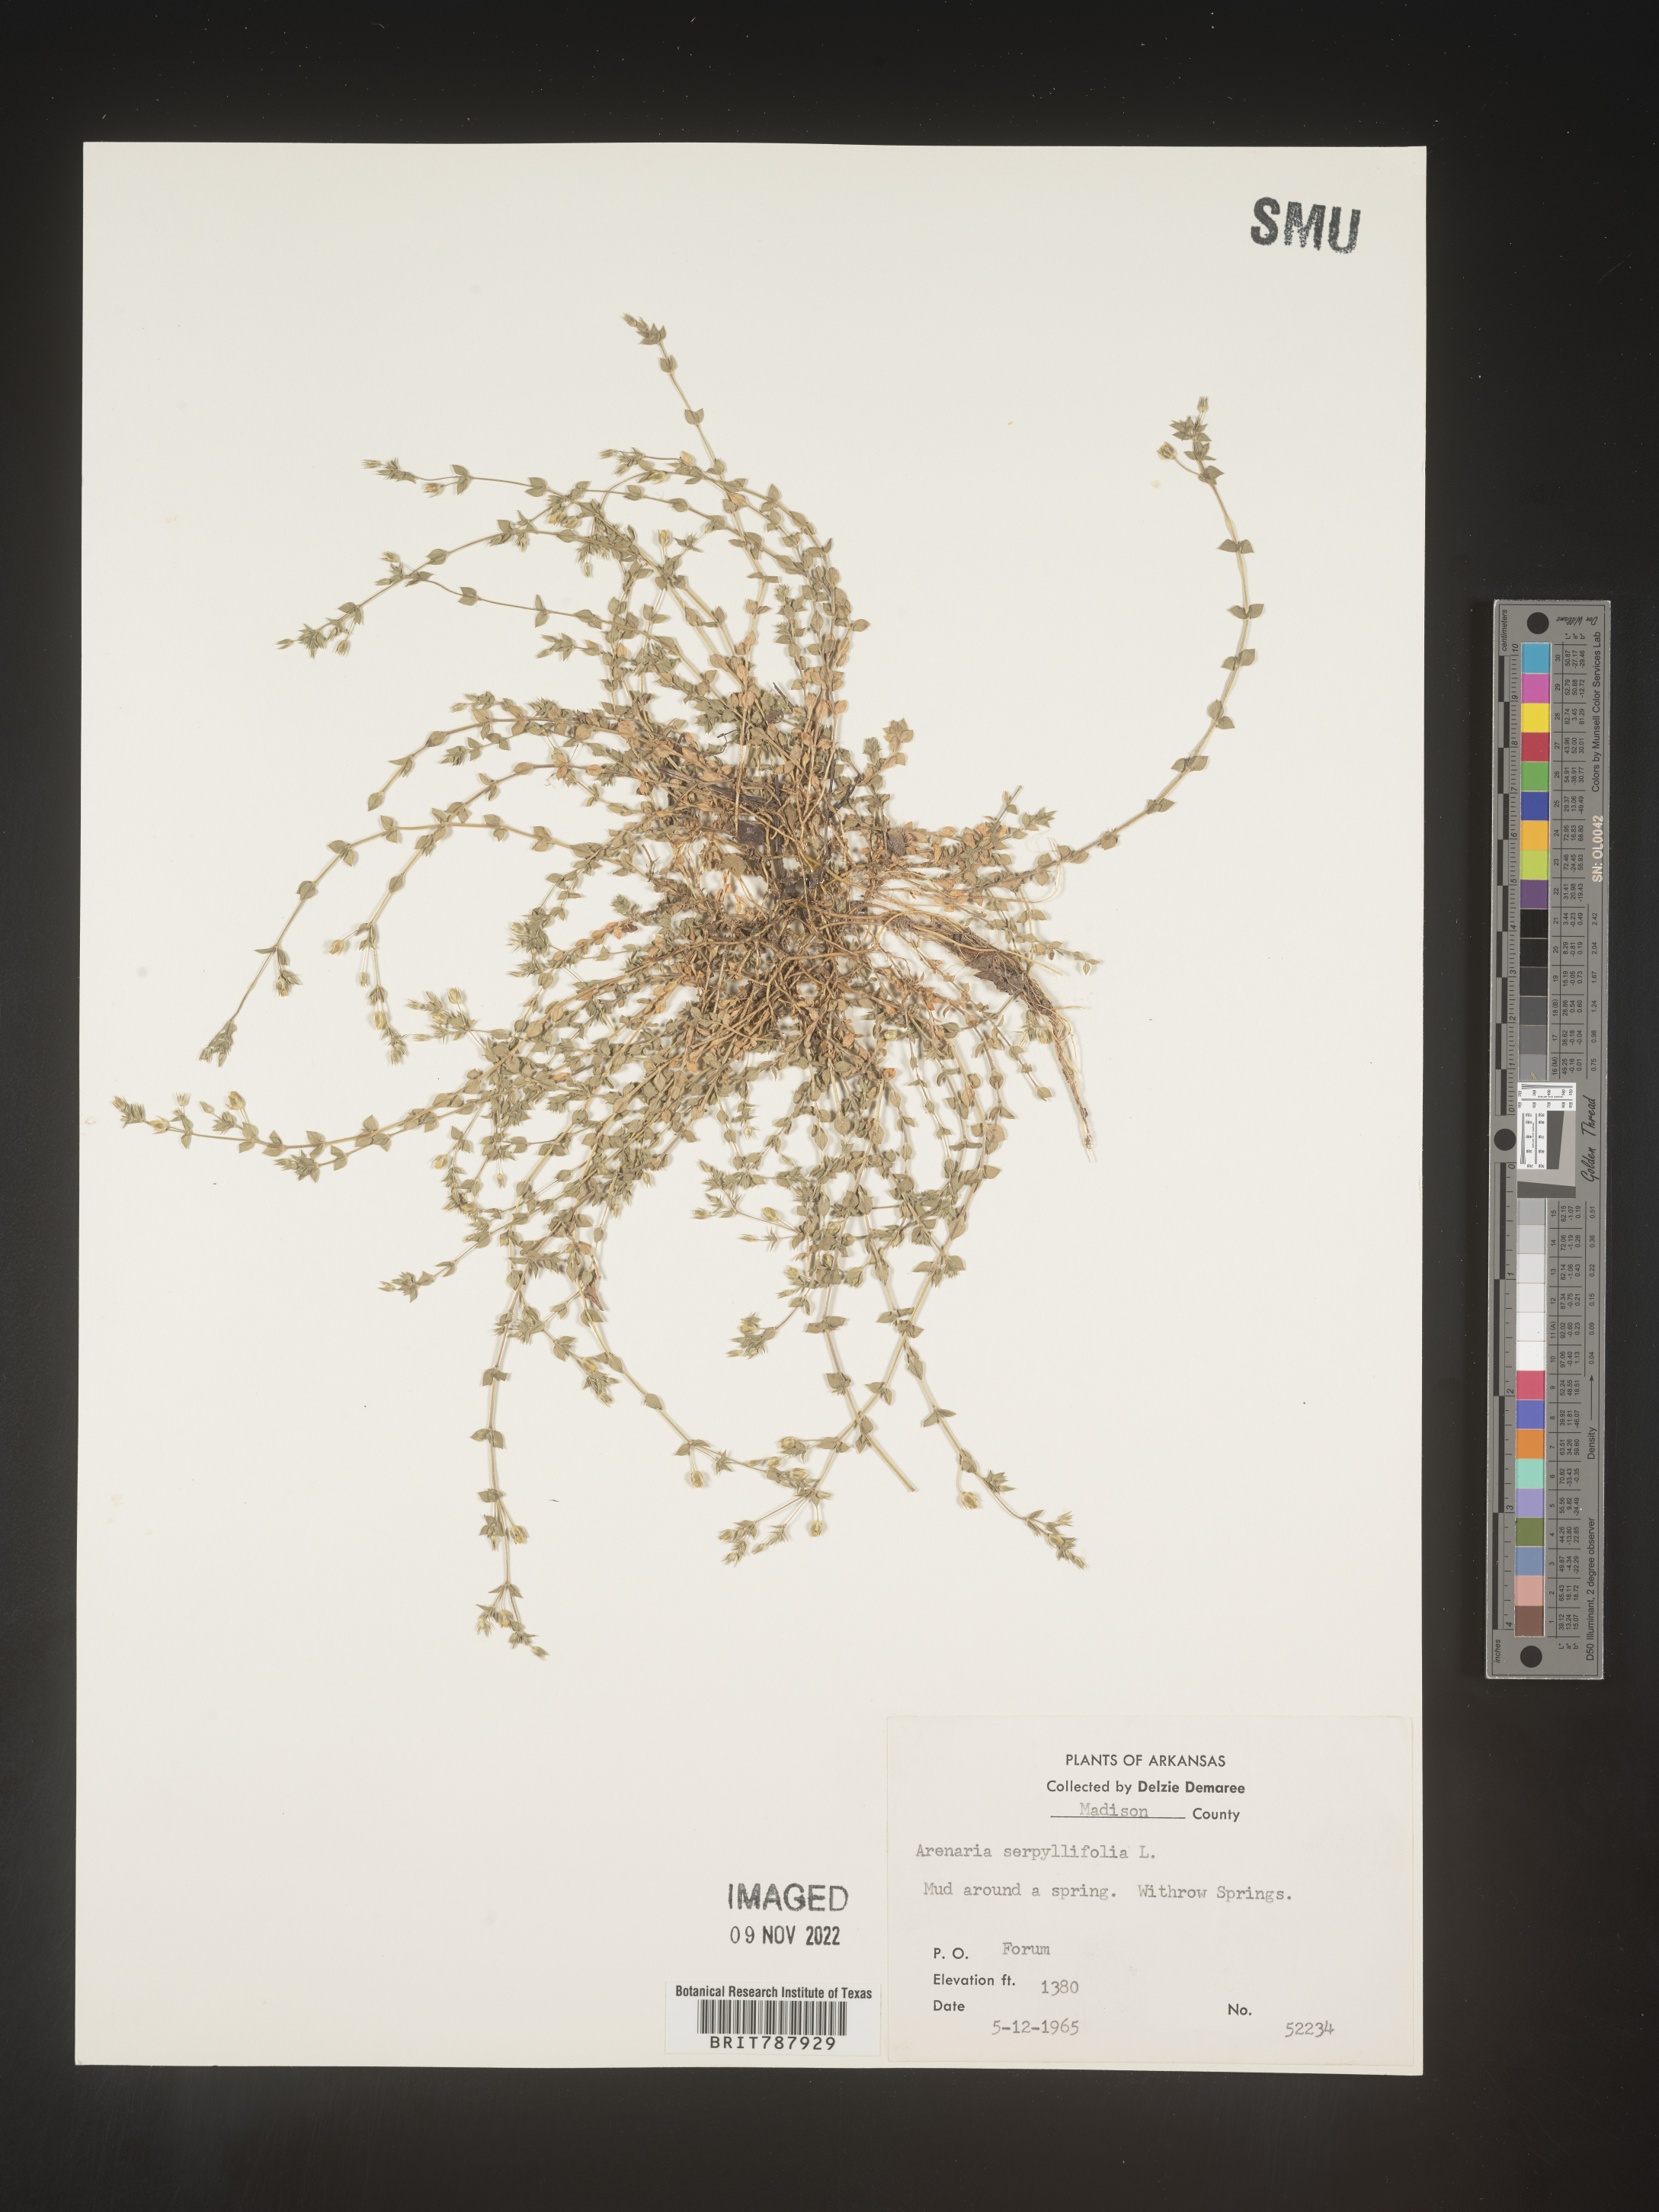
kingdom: Plantae
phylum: Tracheophyta
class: Magnoliopsida
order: Caryophyllales
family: Caryophyllaceae
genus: Arenaria
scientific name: Arenaria serpyllifolia
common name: Thyme-leaved sandwort
